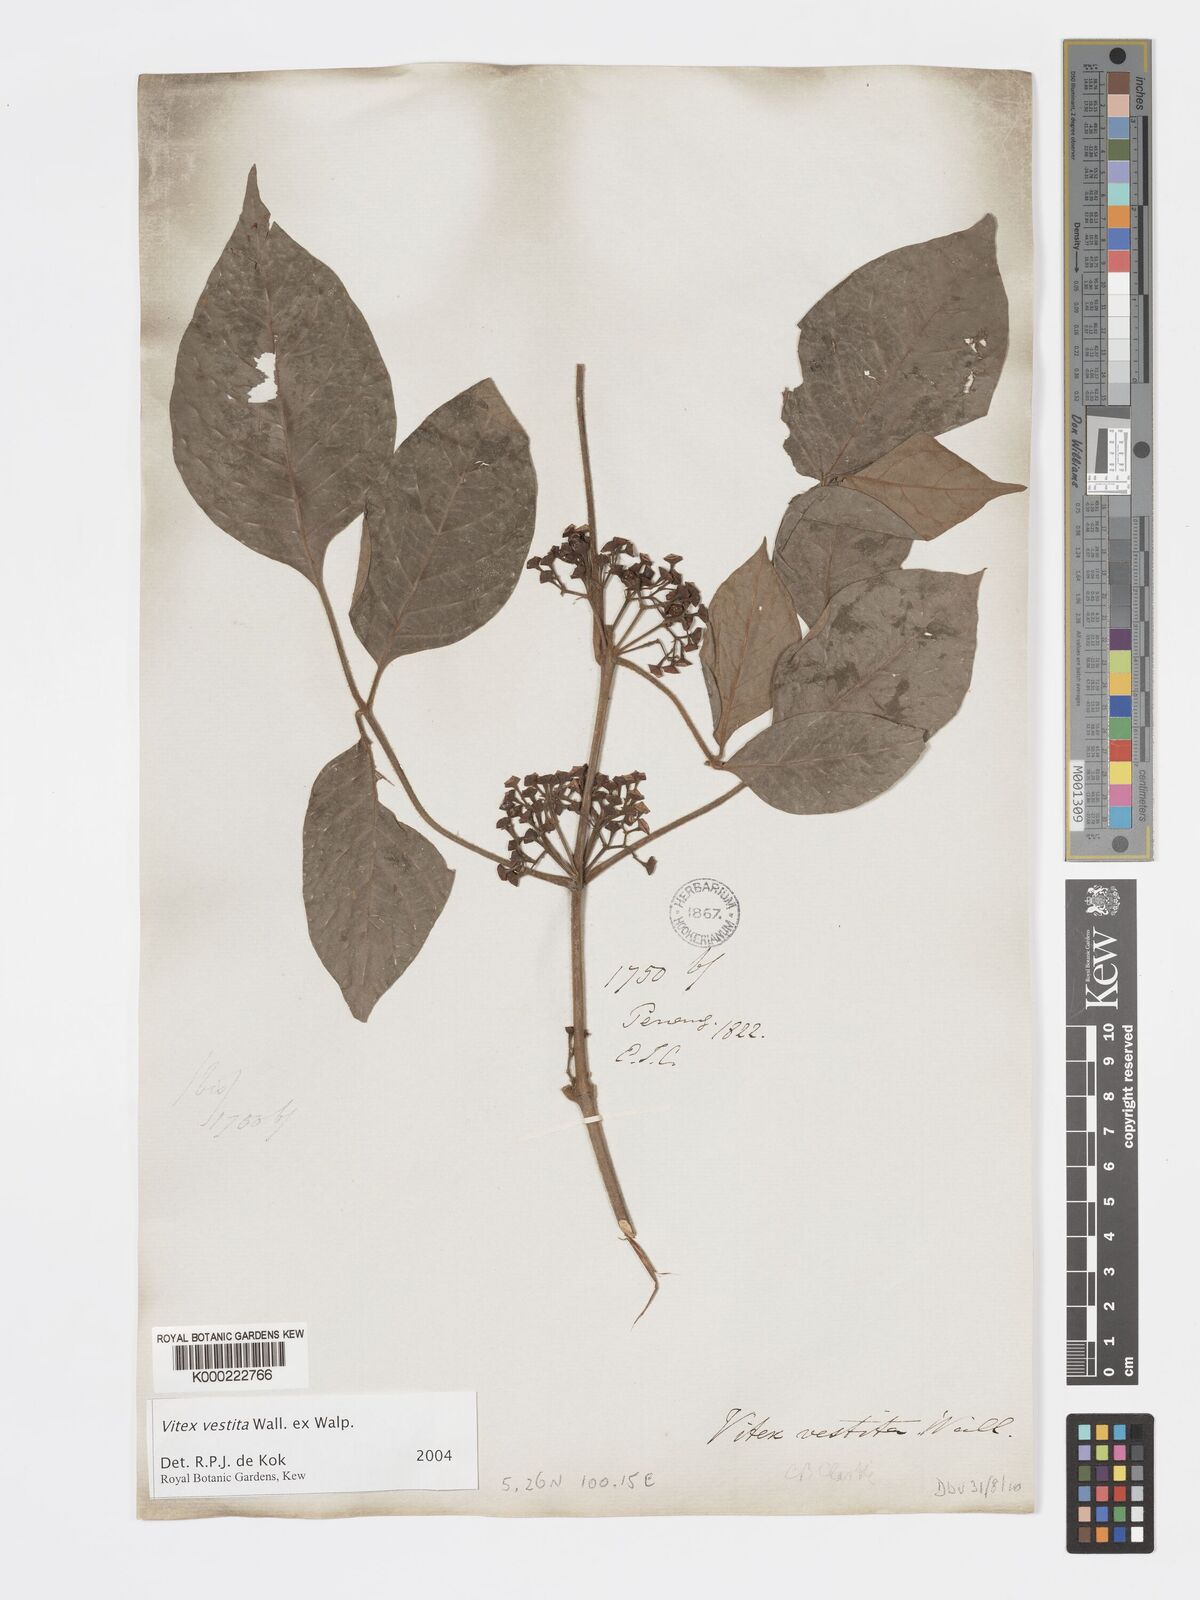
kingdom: Plantae
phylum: Tracheophyta
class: Magnoliopsida
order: Lamiales
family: Lamiaceae
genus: Vitex
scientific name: Vitex vestita
